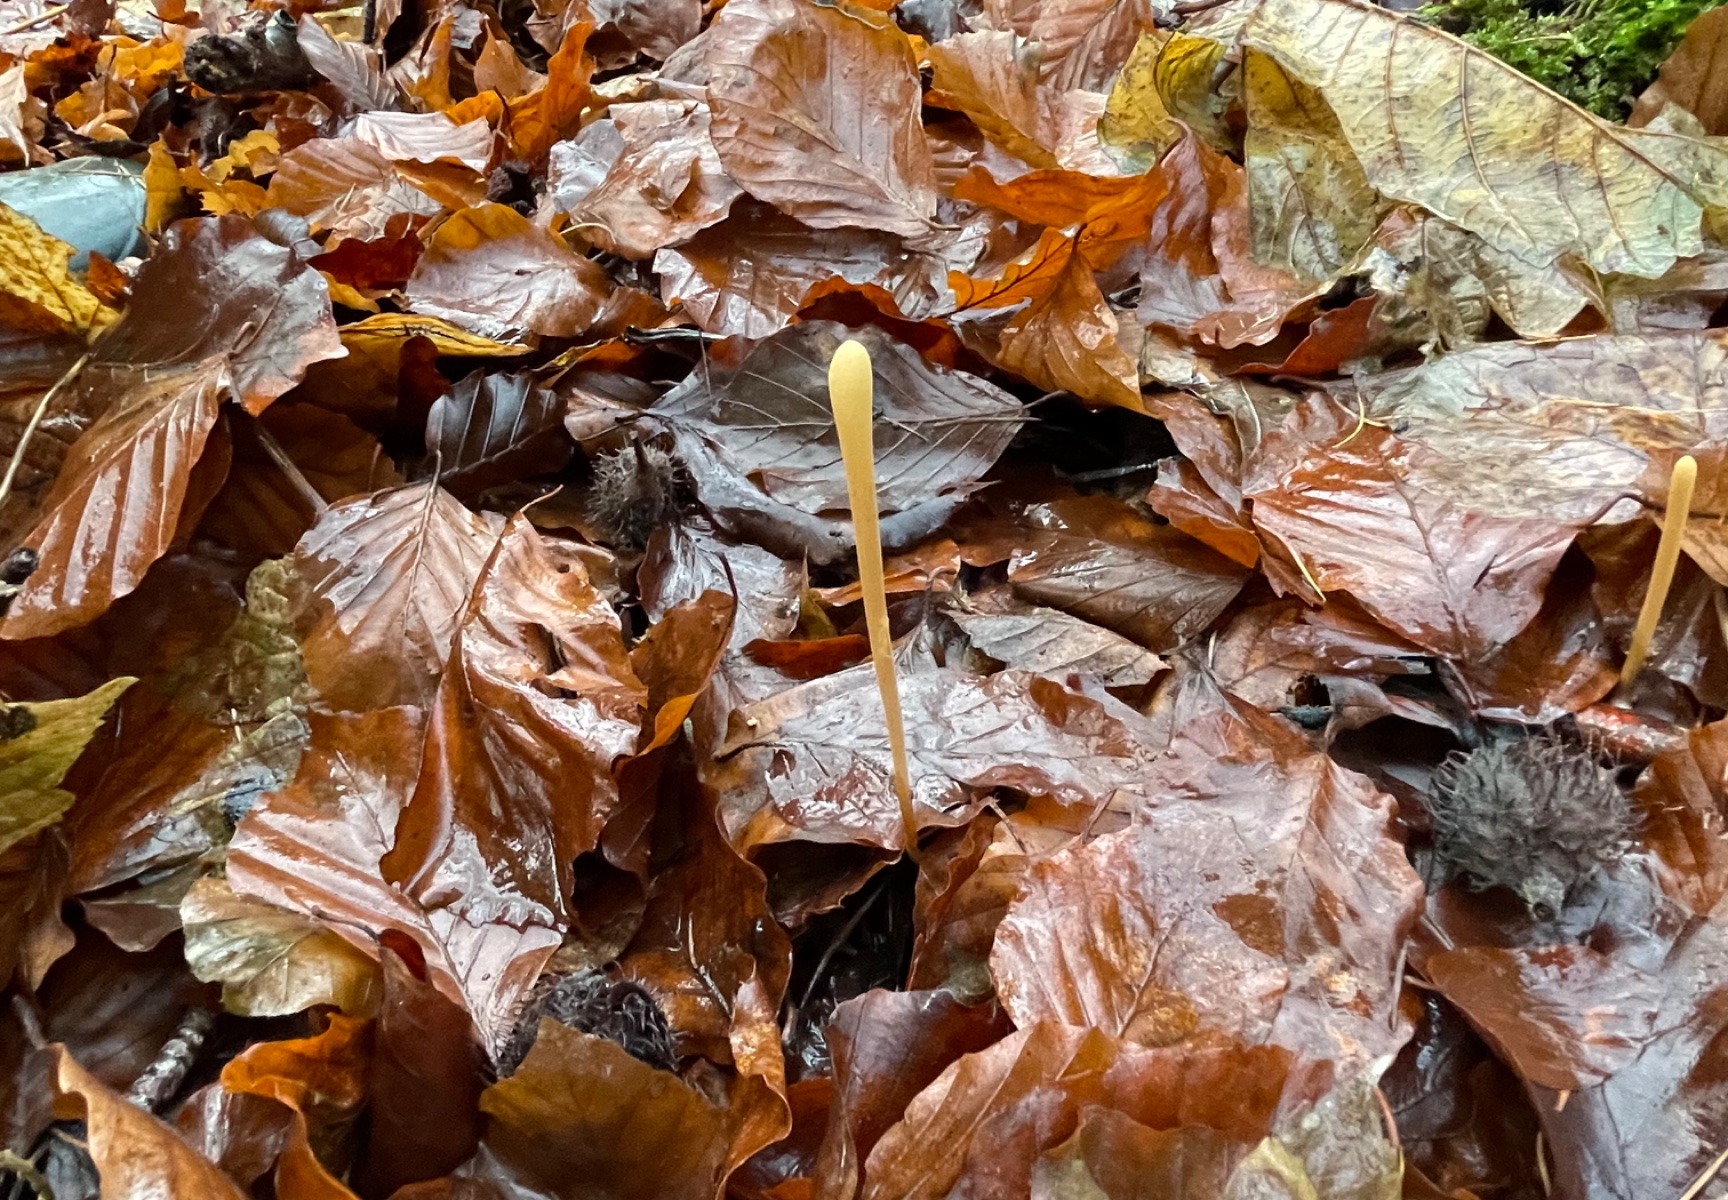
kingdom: Fungi
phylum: Basidiomycota
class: Agaricomycetes
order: Agaricales
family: Typhulaceae
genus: Typhula
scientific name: Typhula fistulosa
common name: pibet rørkølle
